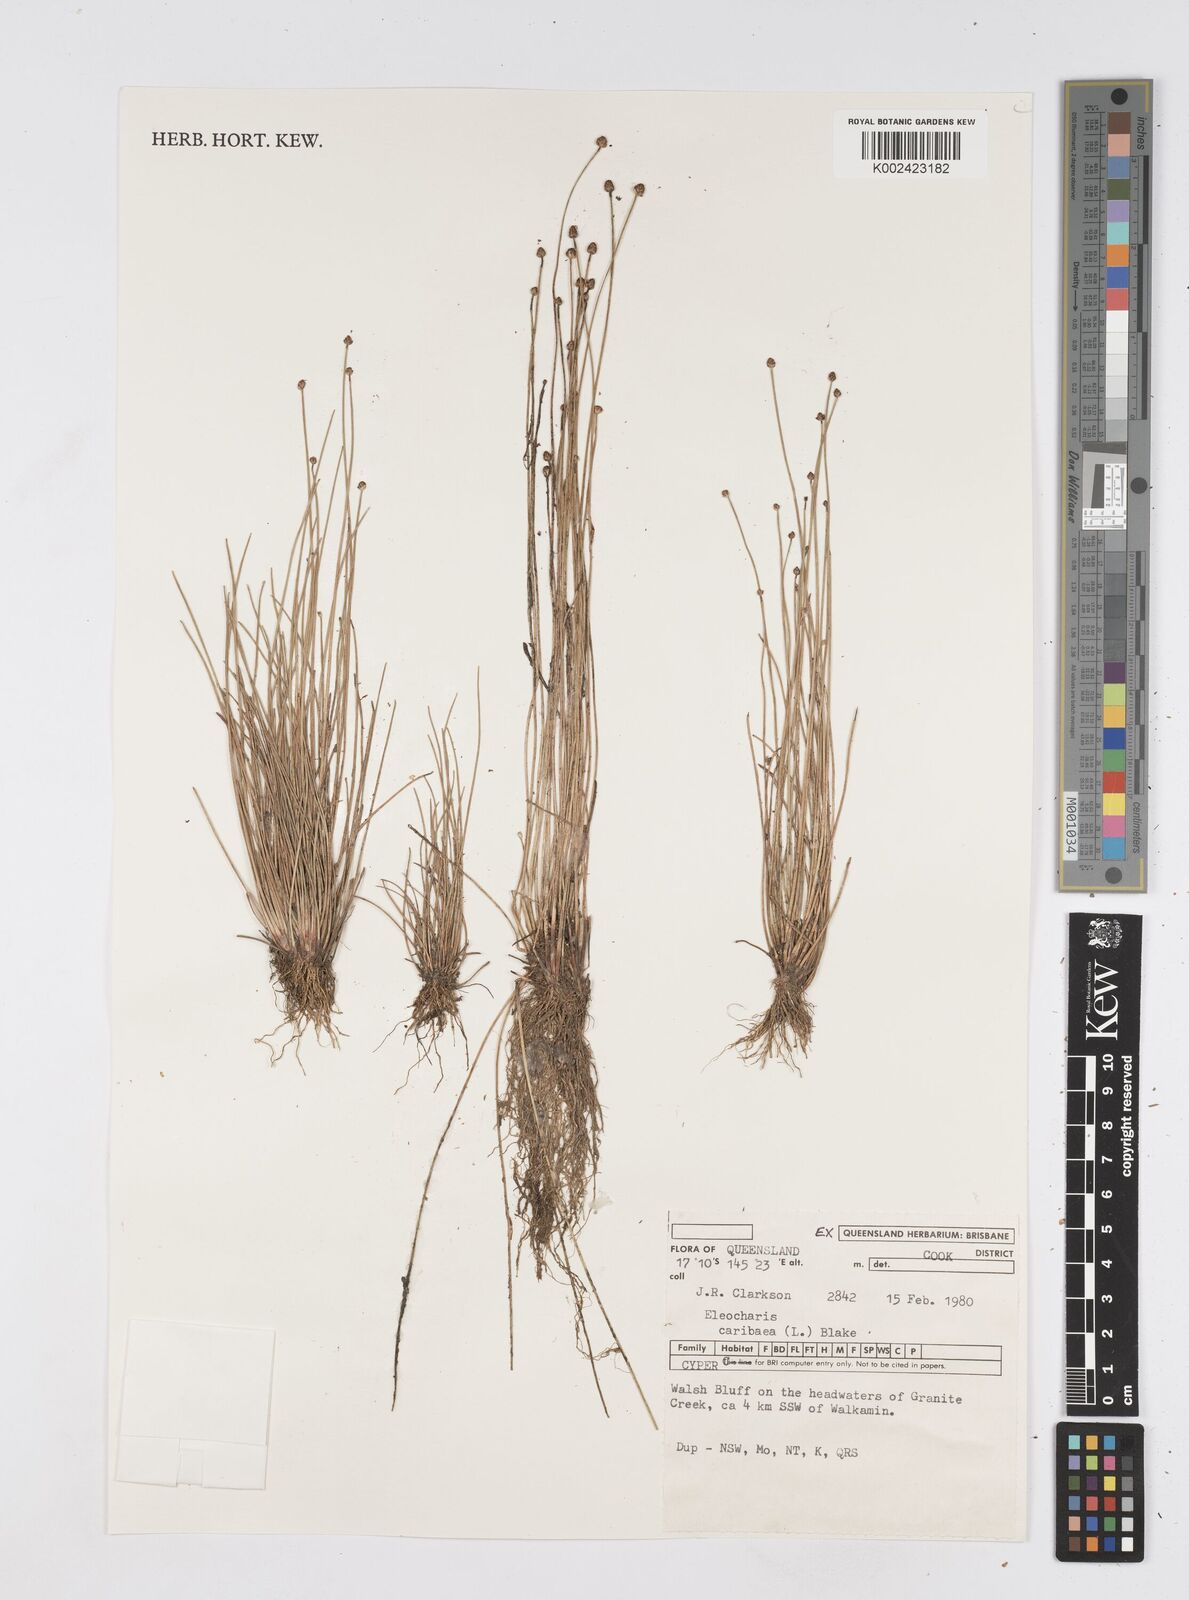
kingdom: Plantae
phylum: Tracheophyta
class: Liliopsida
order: Poales
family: Cyperaceae
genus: Eleocharis
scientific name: Eleocharis geniculata
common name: Canada spikesedge
